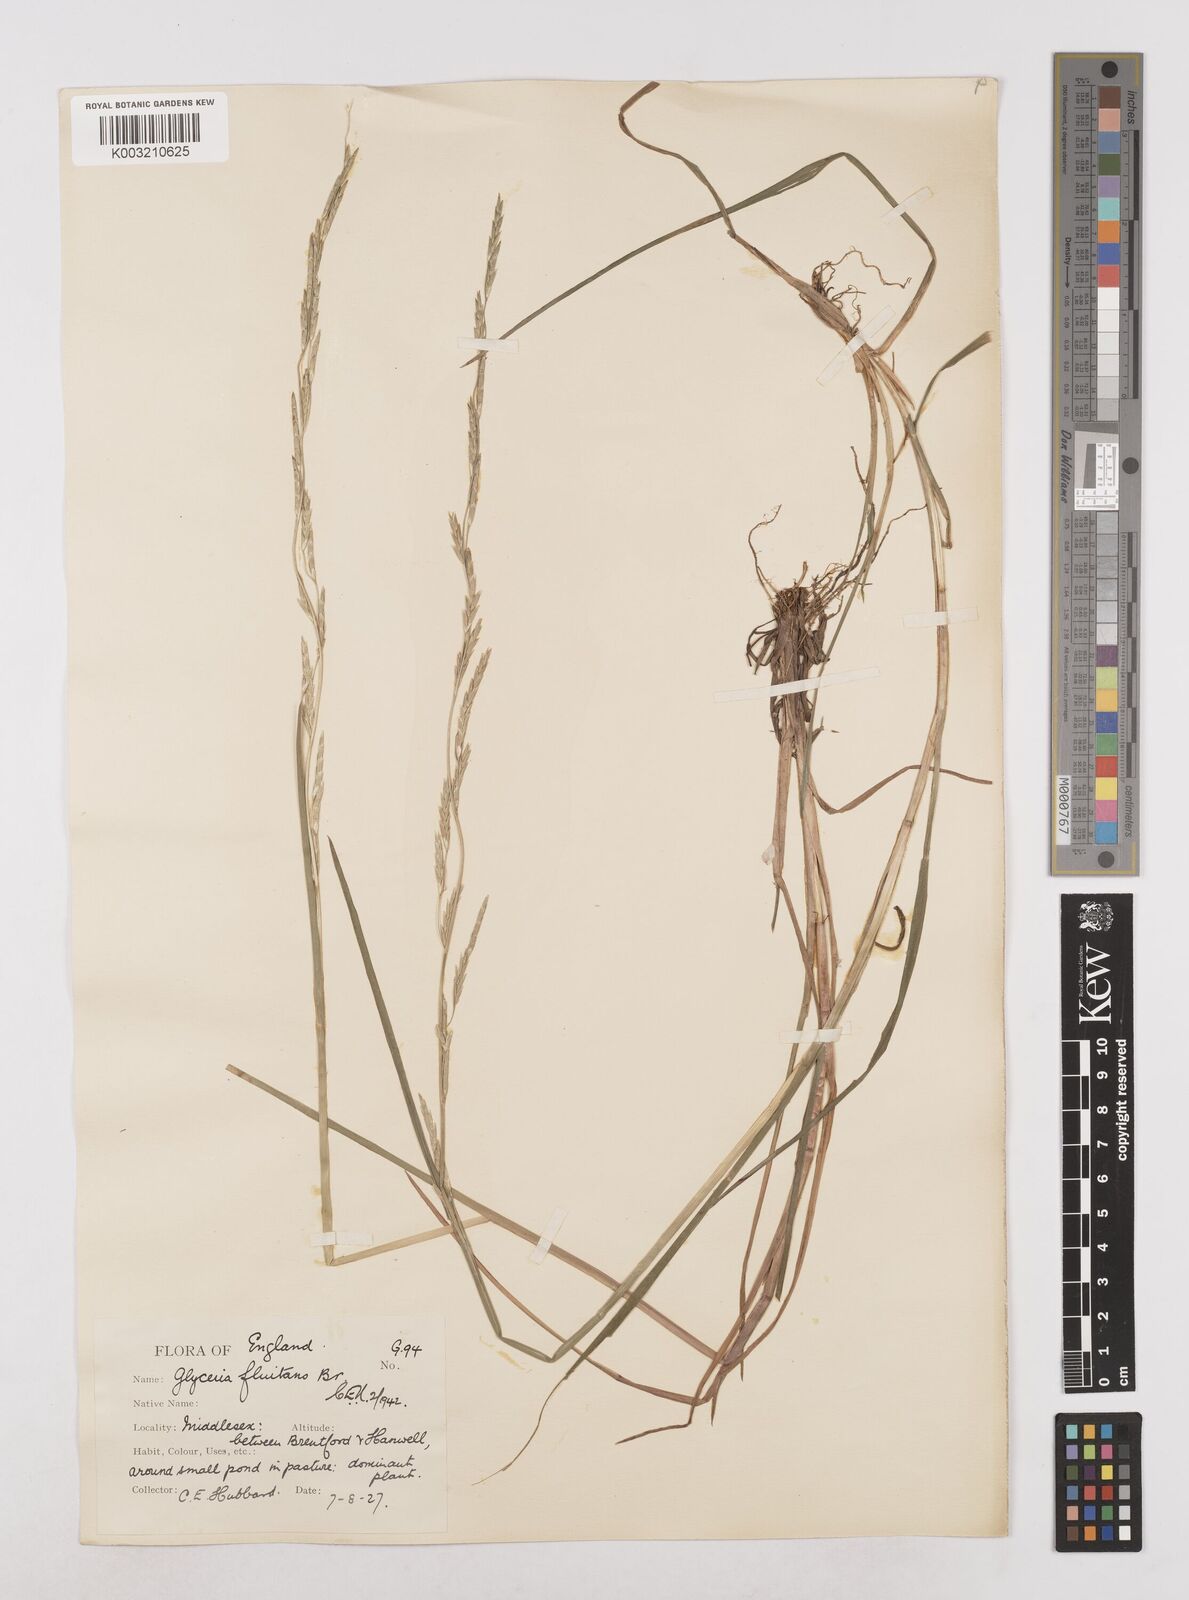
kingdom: Plantae
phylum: Tracheophyta
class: Liliopsida
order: Poales
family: Poaceae
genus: Glyceria
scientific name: Glyceria fluitans
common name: Floating sweet-grass
